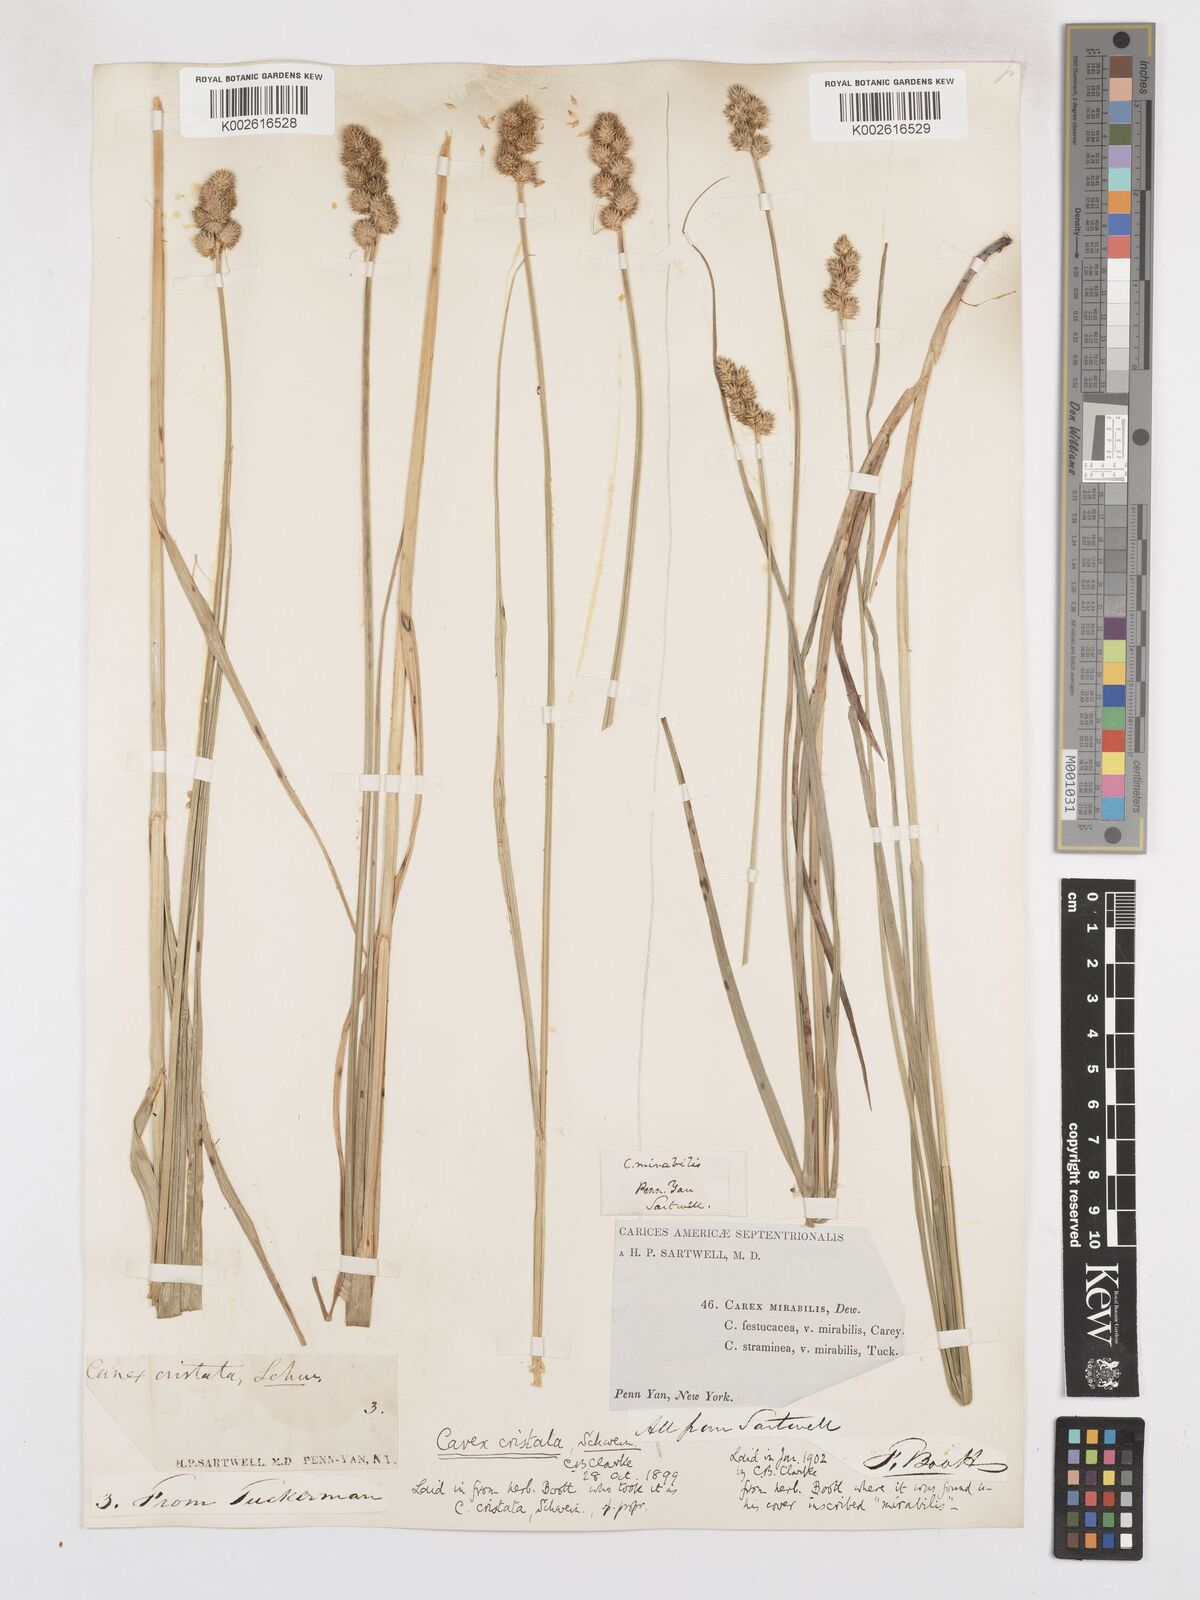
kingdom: Plantae
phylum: Tracheophyta
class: Liliopsida
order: Poales
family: Cyperaceae
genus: Carex
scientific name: Carex cristatella
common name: Crested oval sedge
